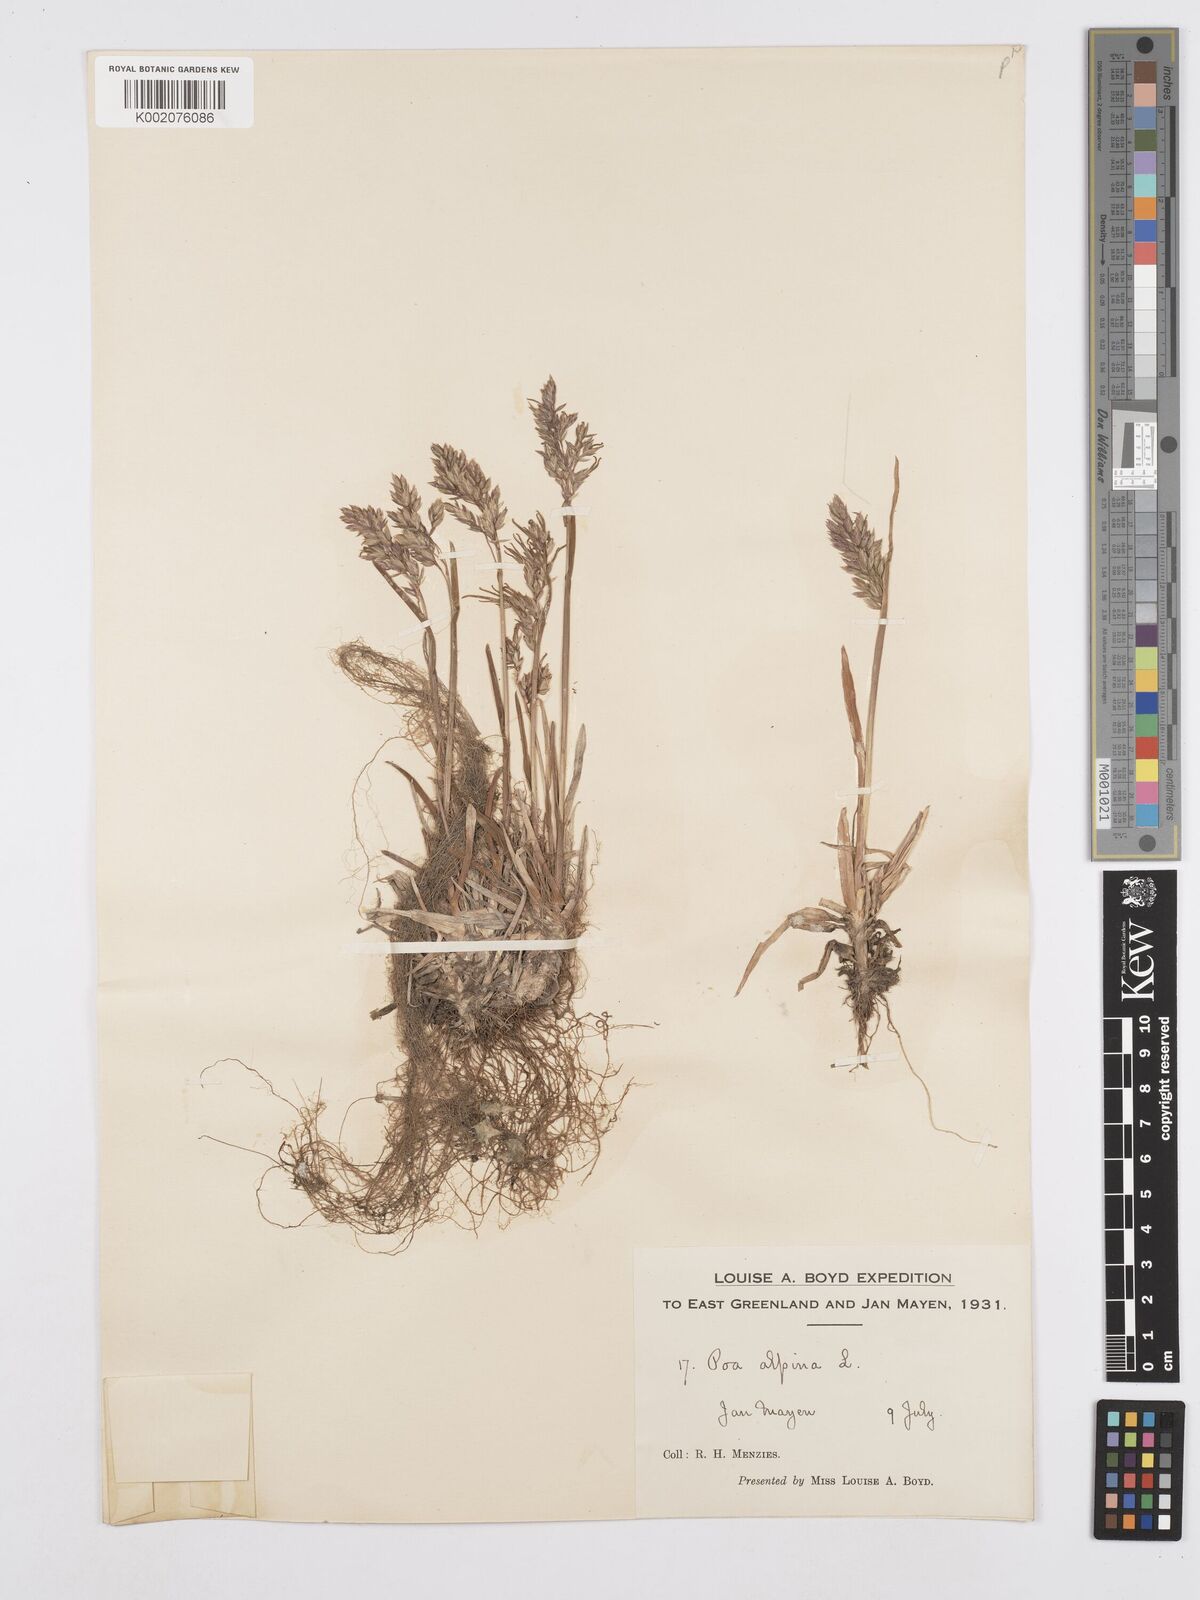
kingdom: Plantae
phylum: Tracheophyta
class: Liliopsida
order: Poales
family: Poaceae
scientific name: Poaceae
